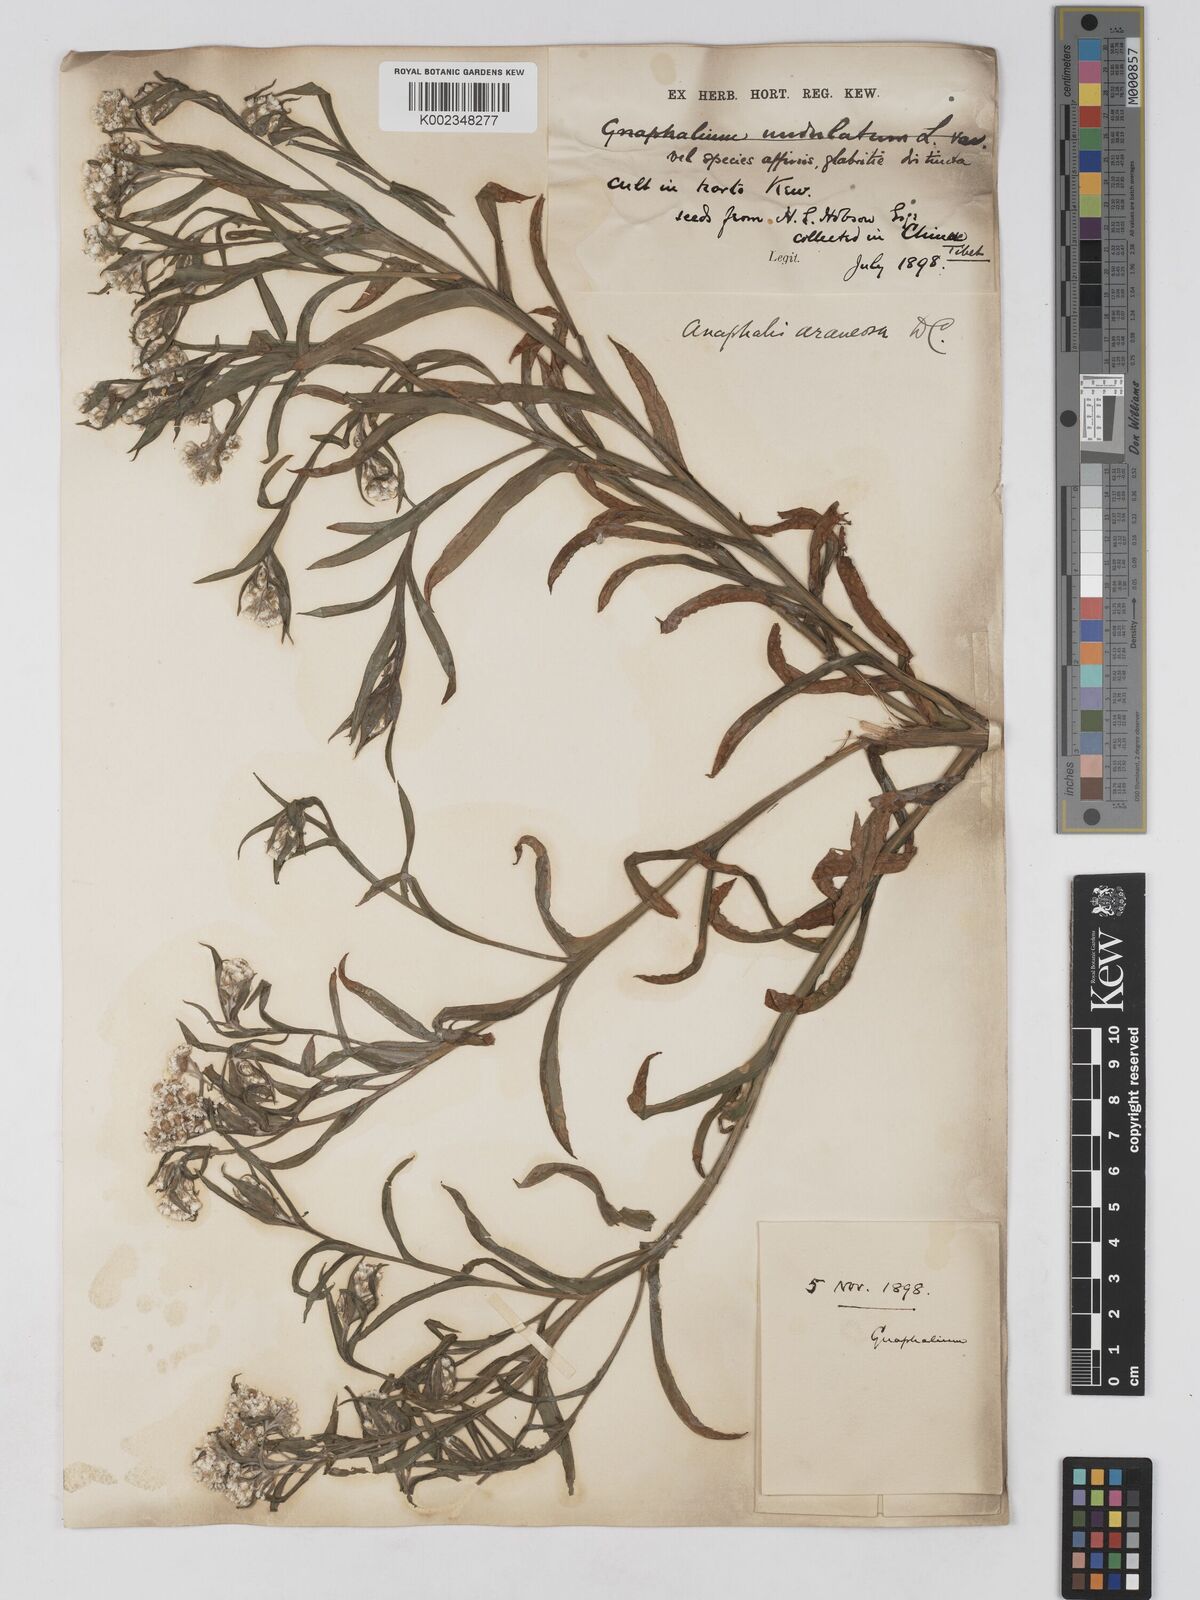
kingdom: Plantae
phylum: Tracheophyta
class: Magnoliopsida
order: Asterales
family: Asteraceae
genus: Anaphalis
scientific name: Anaphalis busua
